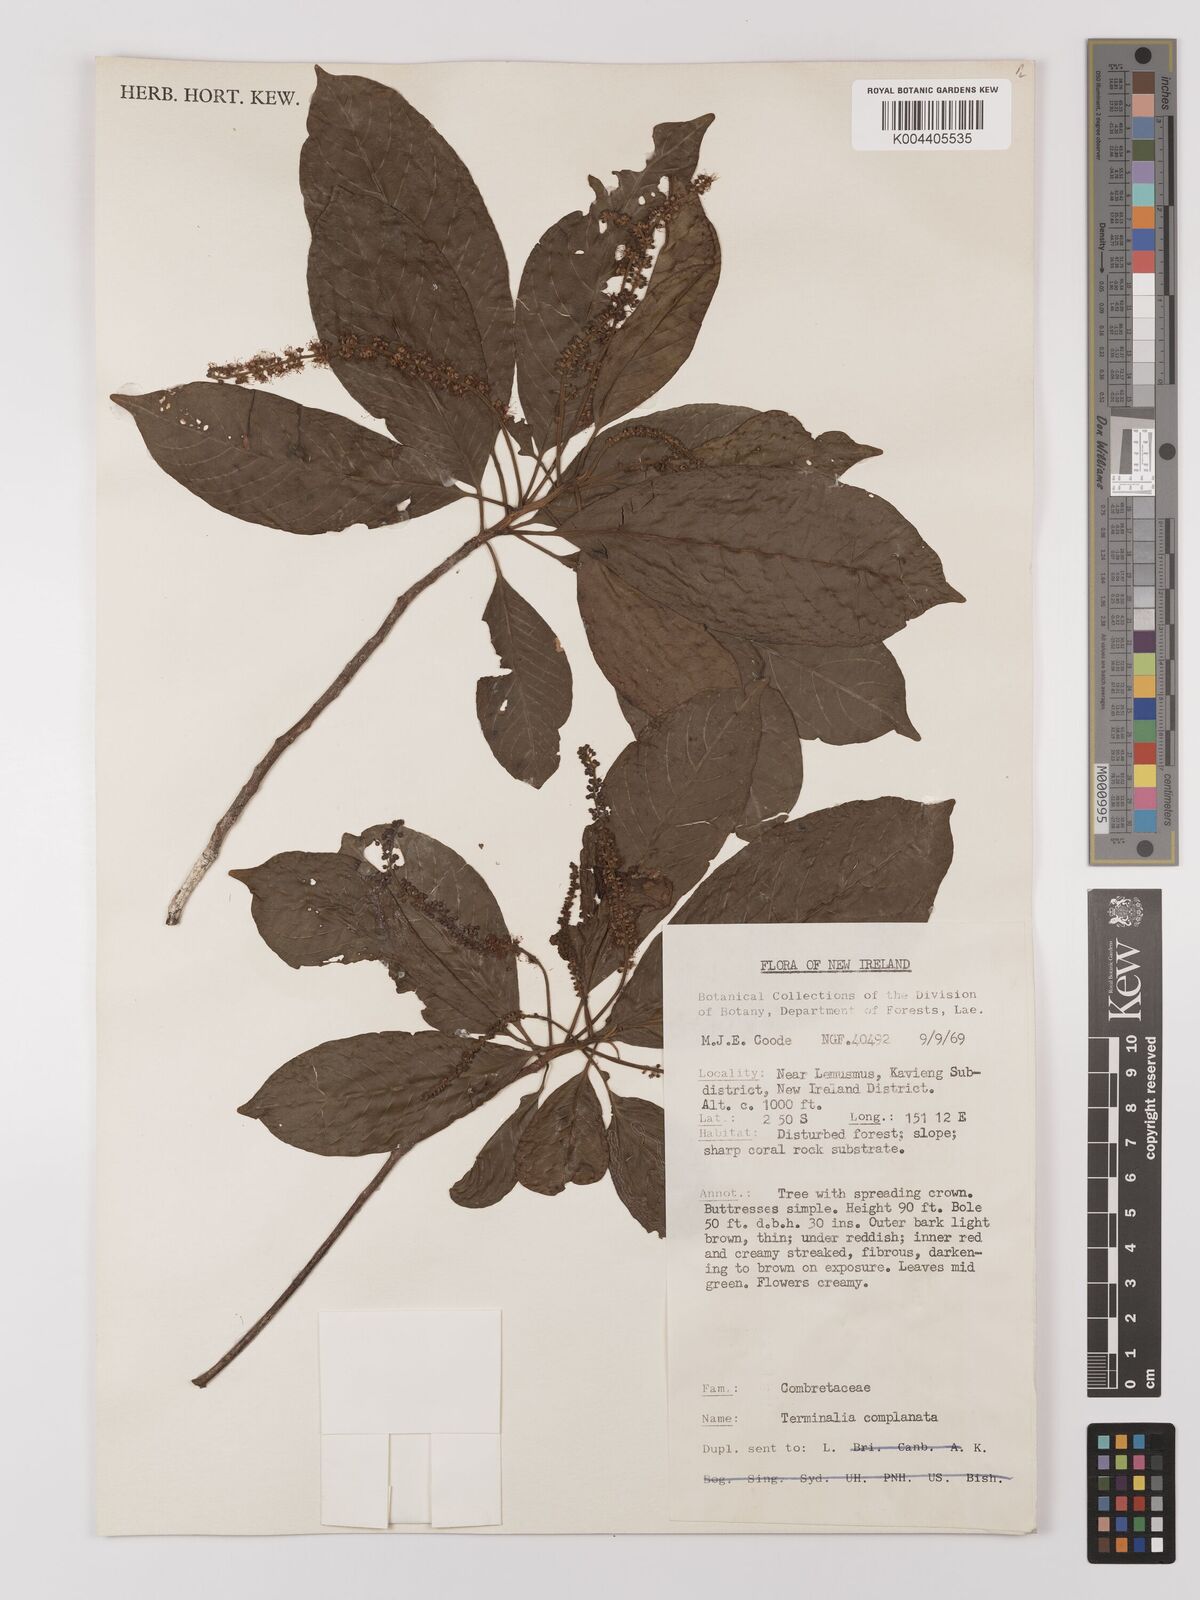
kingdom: Plantae
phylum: Tracheophyta
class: Magnoliopsida
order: Myrtales
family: Combretaceae
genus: Terminalia
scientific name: Terminalia complanata
